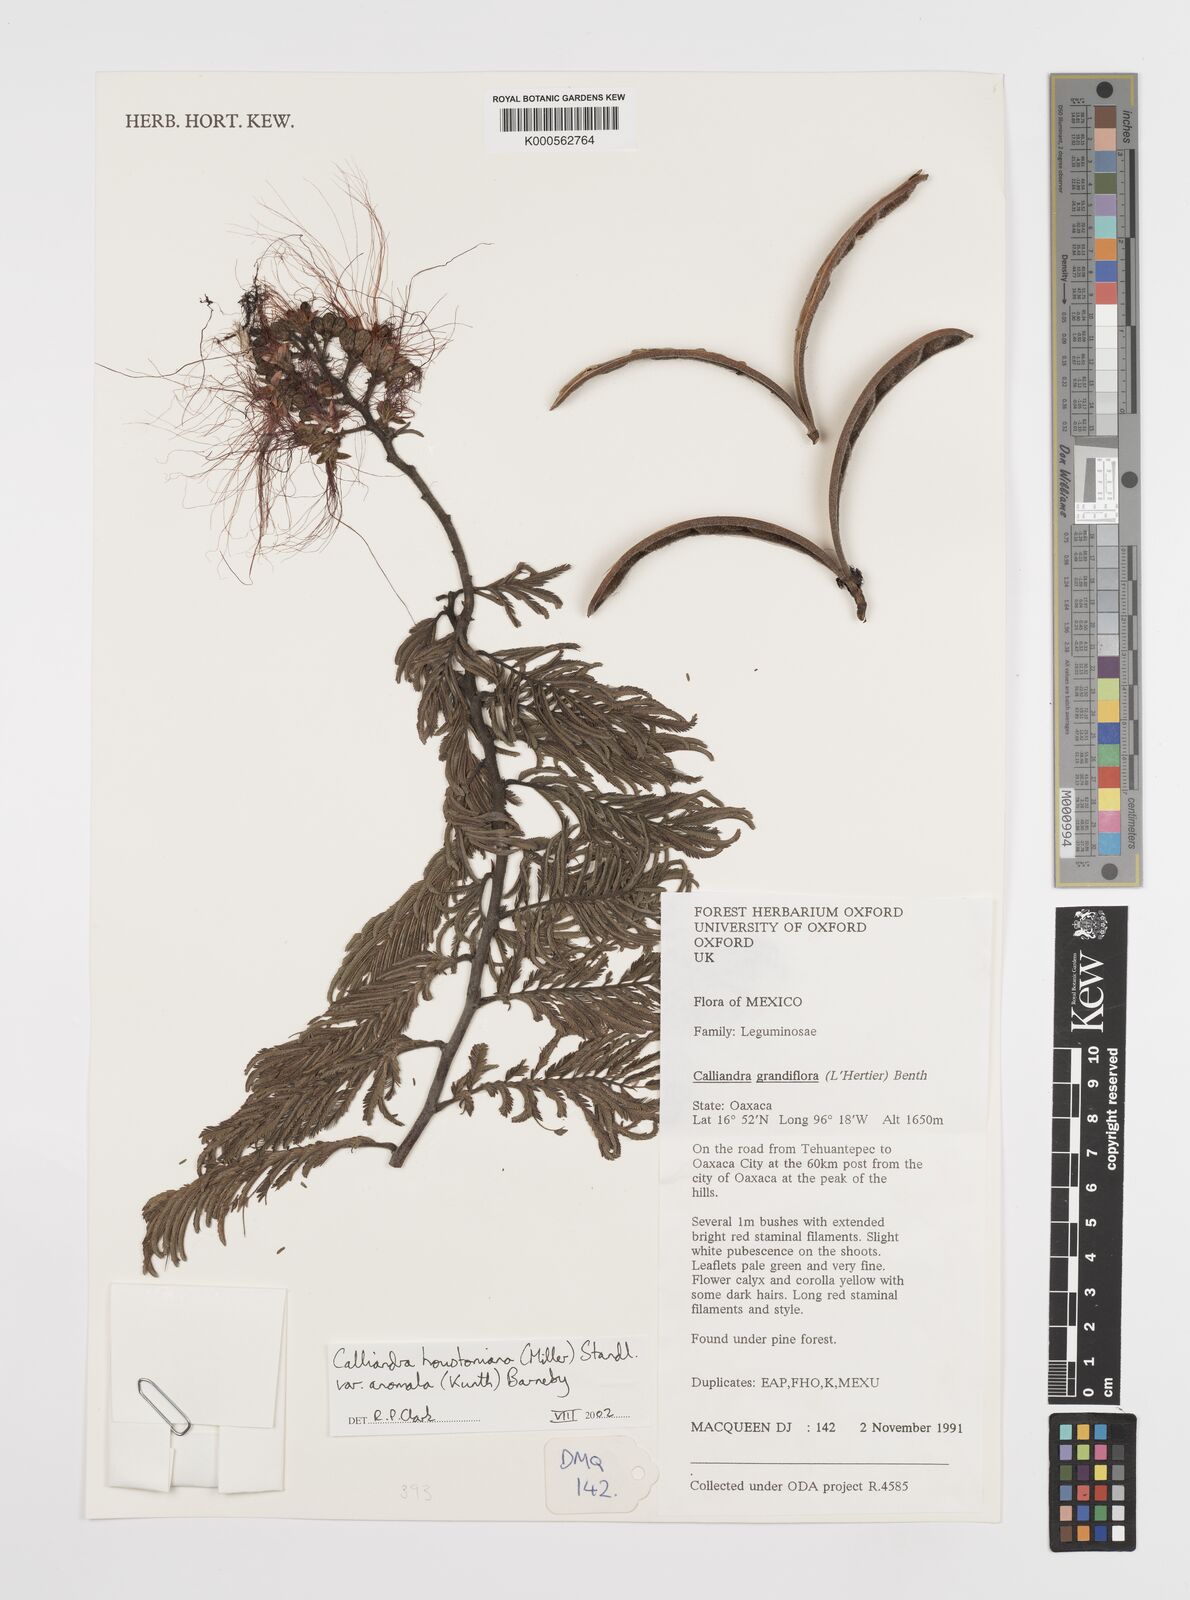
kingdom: Plantae
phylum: Tracheophyta
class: Magnoliopsida
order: Fabales
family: Fabaceae
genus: Calliandra
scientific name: Calliandra houstoniana
